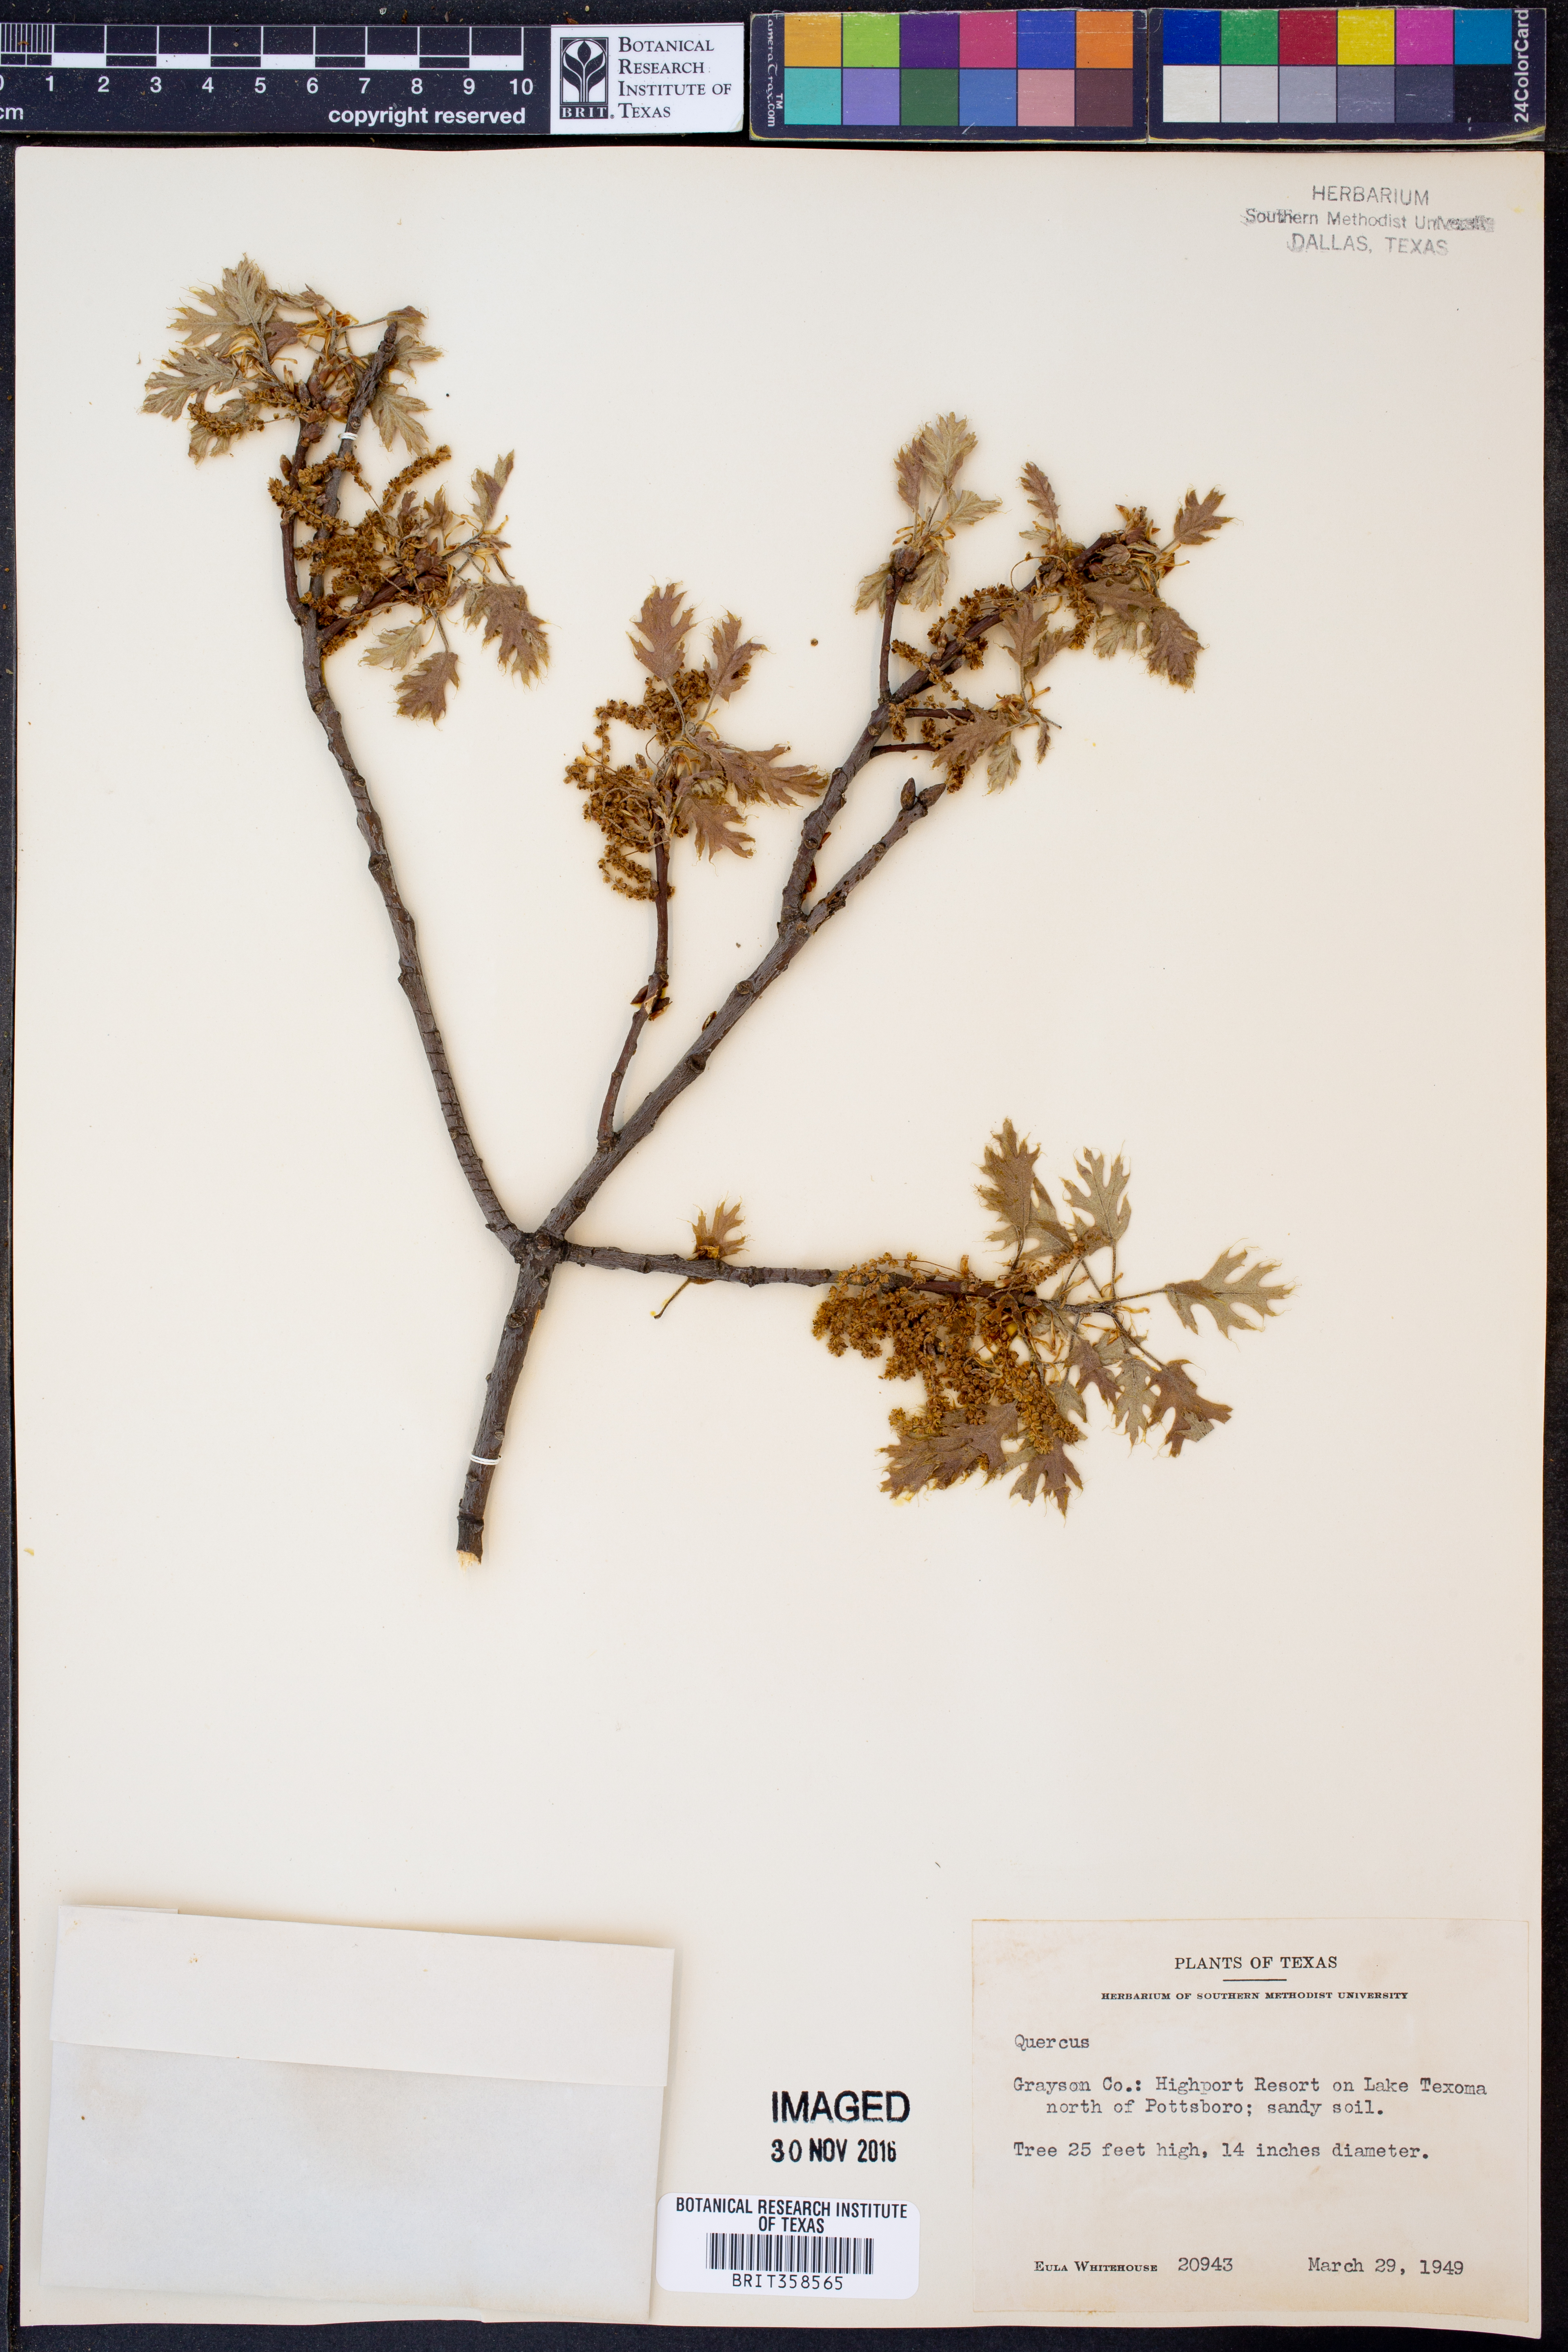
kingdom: Plantae
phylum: Tracheophyta
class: Magnoliopsida
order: Fagales
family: Fagaceae
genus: Quercus
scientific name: Quercus
